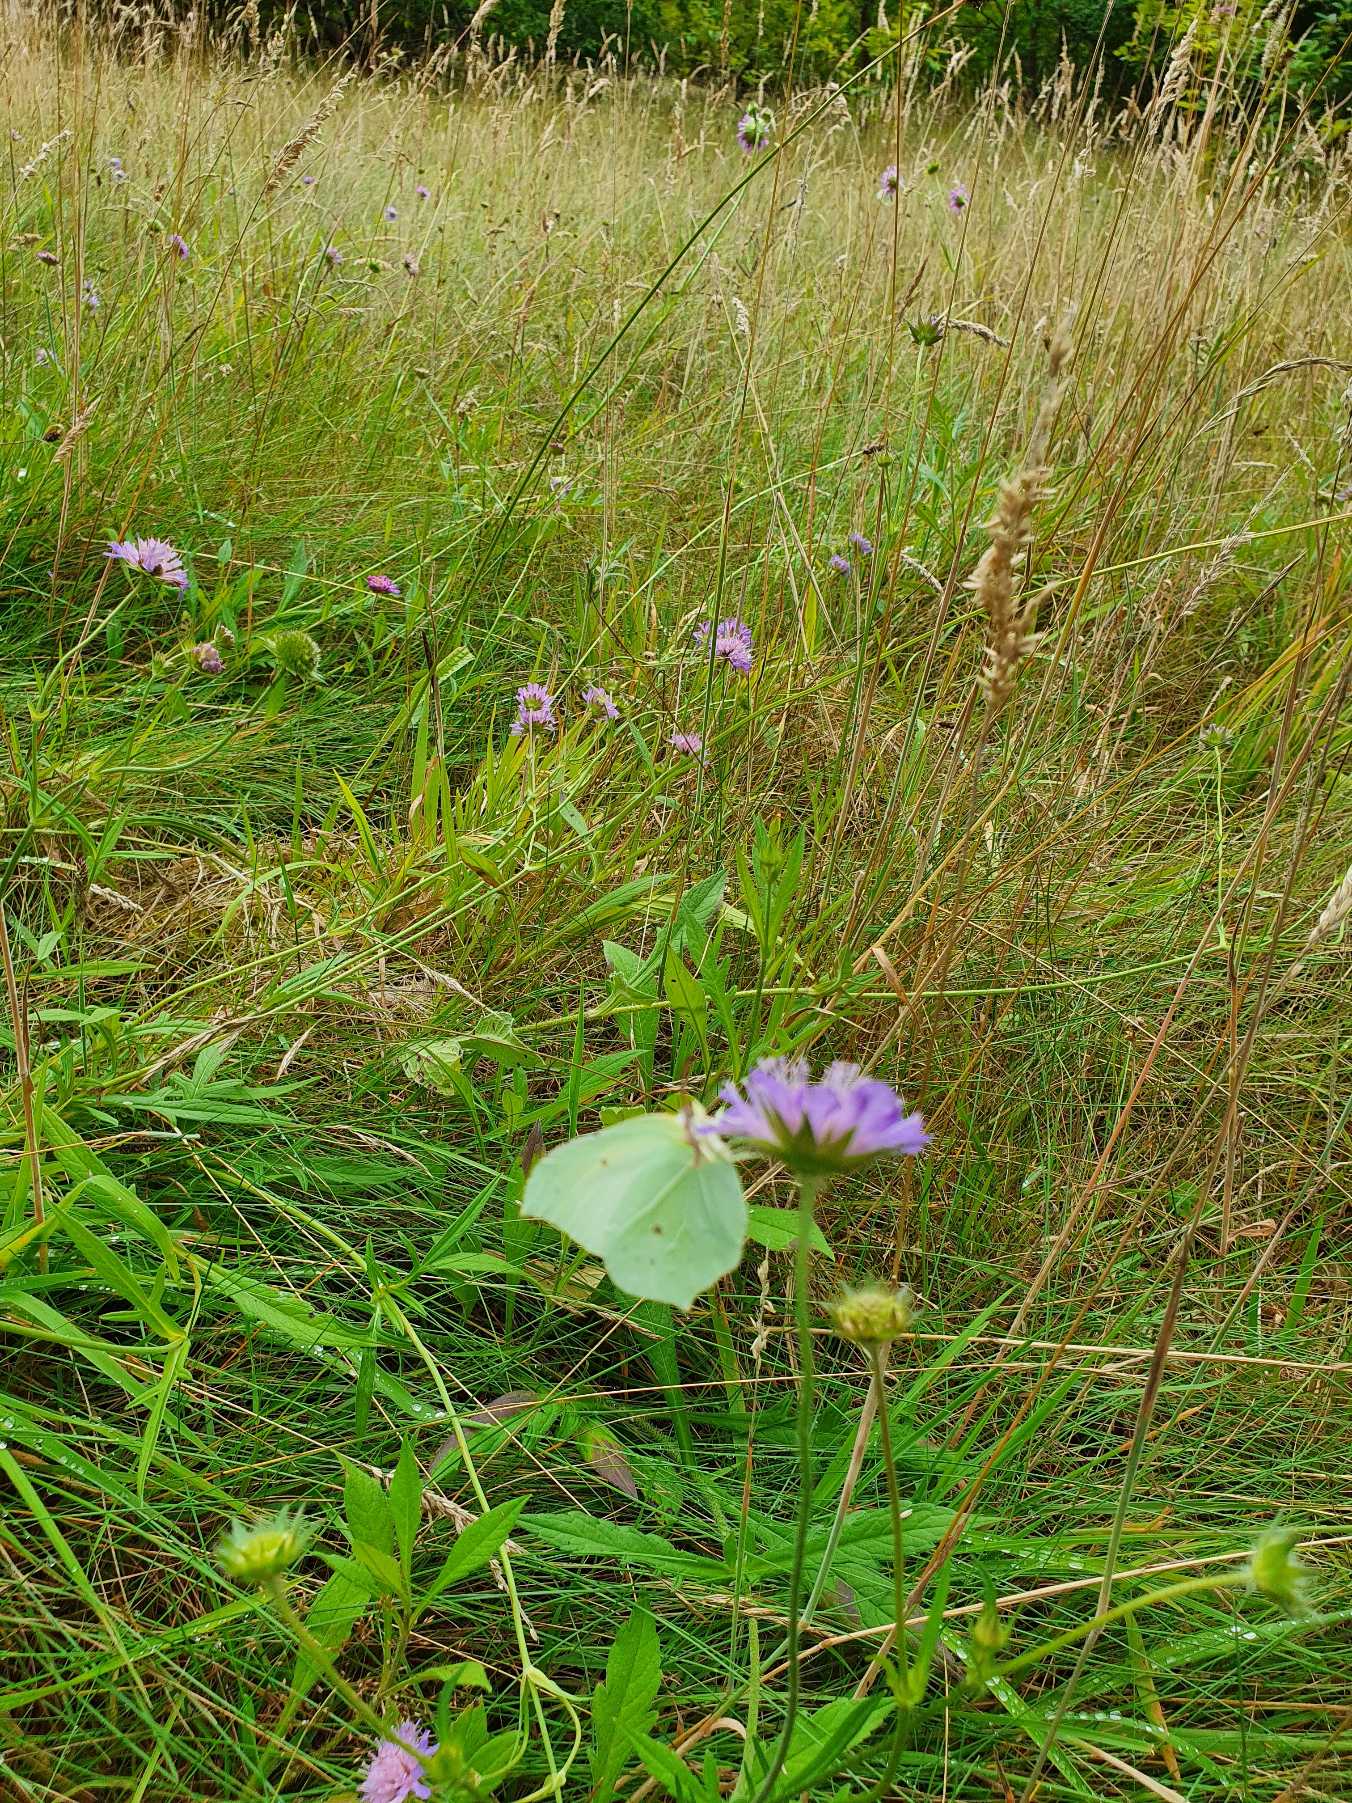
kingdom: Animalia
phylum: Arthropoda
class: Insecta
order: Lepidoptera
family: Pieridae
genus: Gonepteryx
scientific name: Gonepteryx rhamni
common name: Citronsommerfugl
